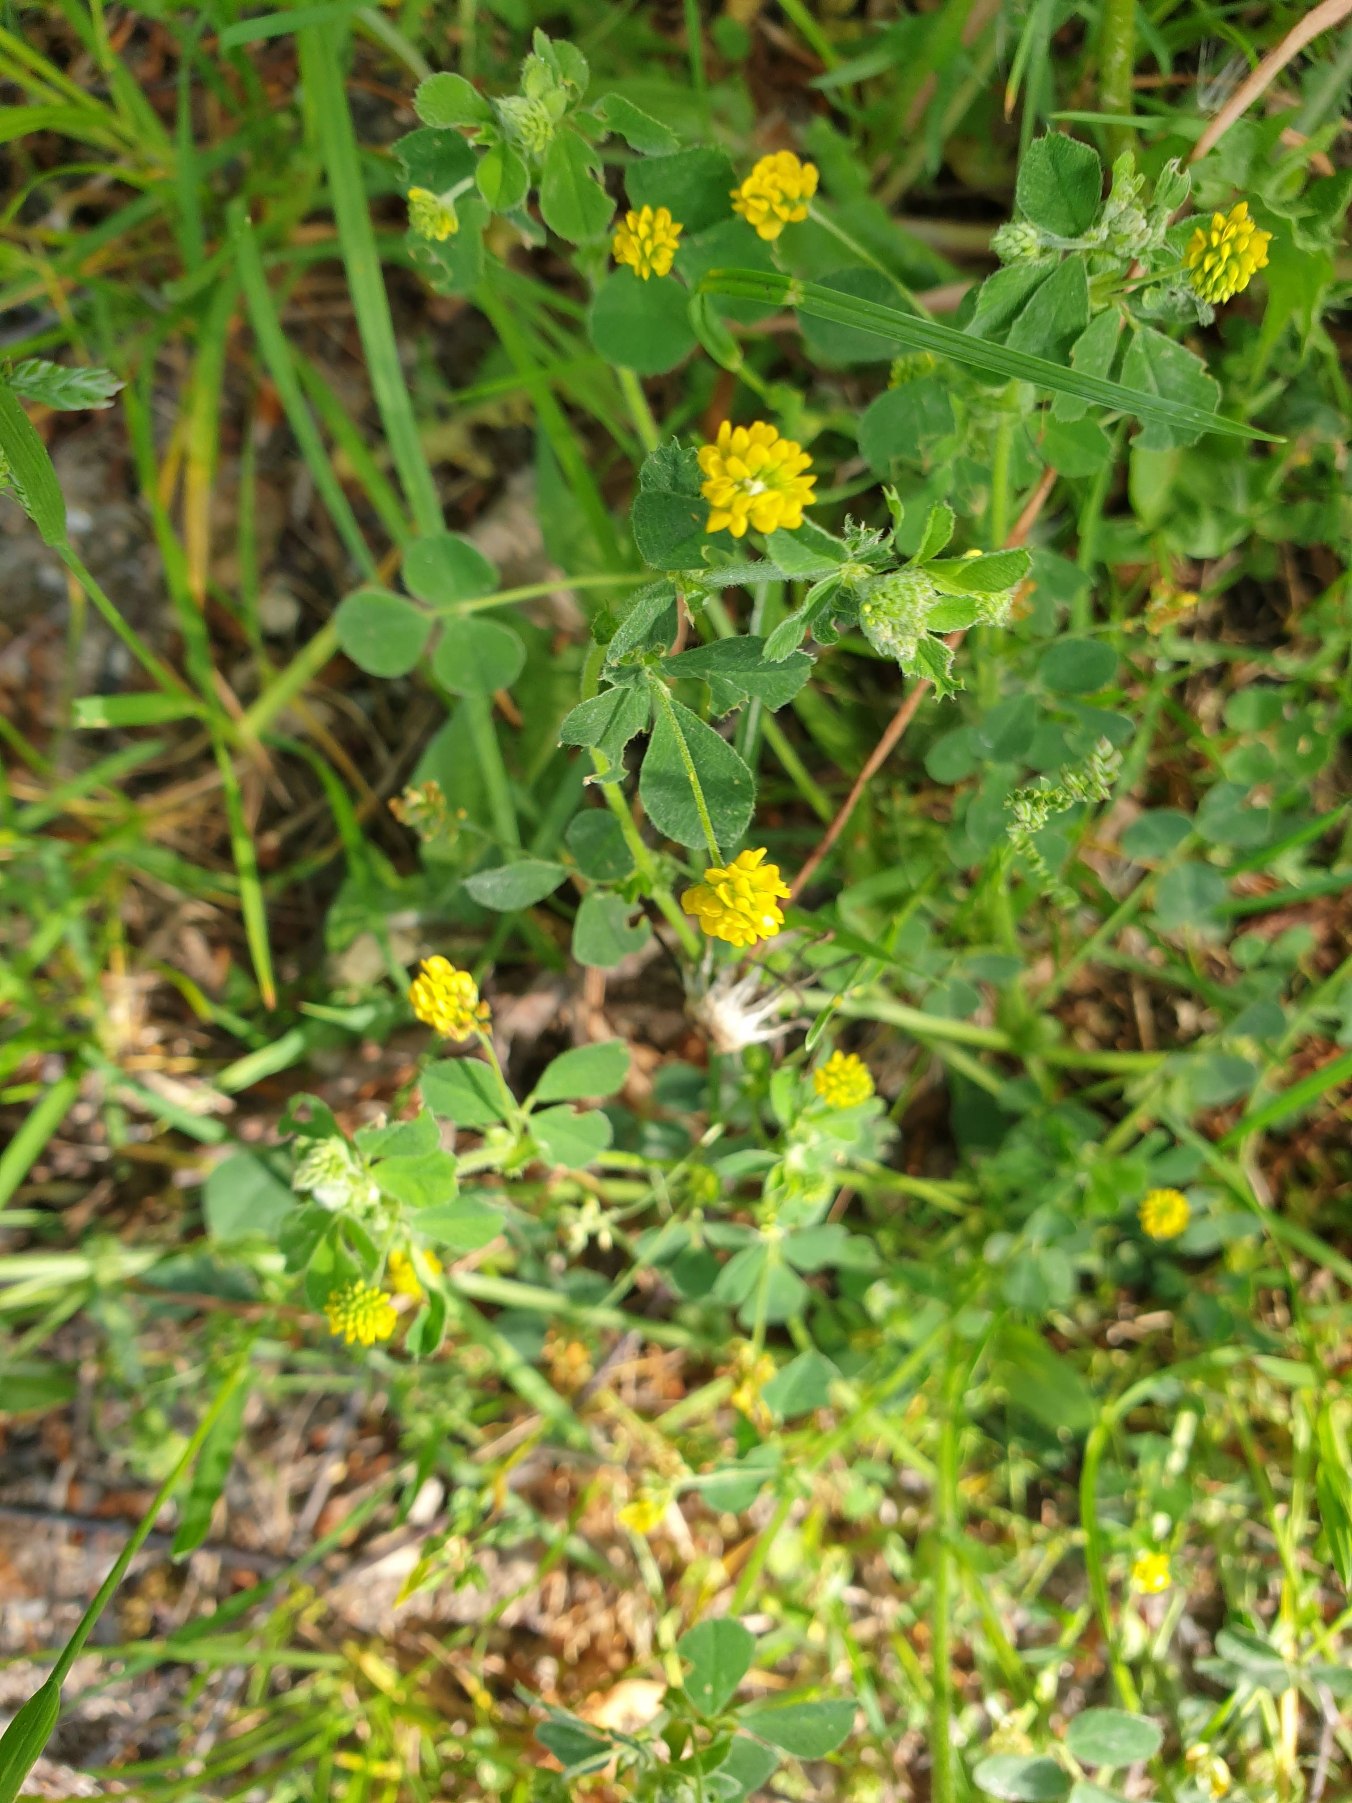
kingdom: Plantae
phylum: Tracheophyta
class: Magnoliopsida
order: Fabales
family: Fabaceae
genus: Medicago
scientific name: Medicago lupulina
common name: Humle-sneglebælg
